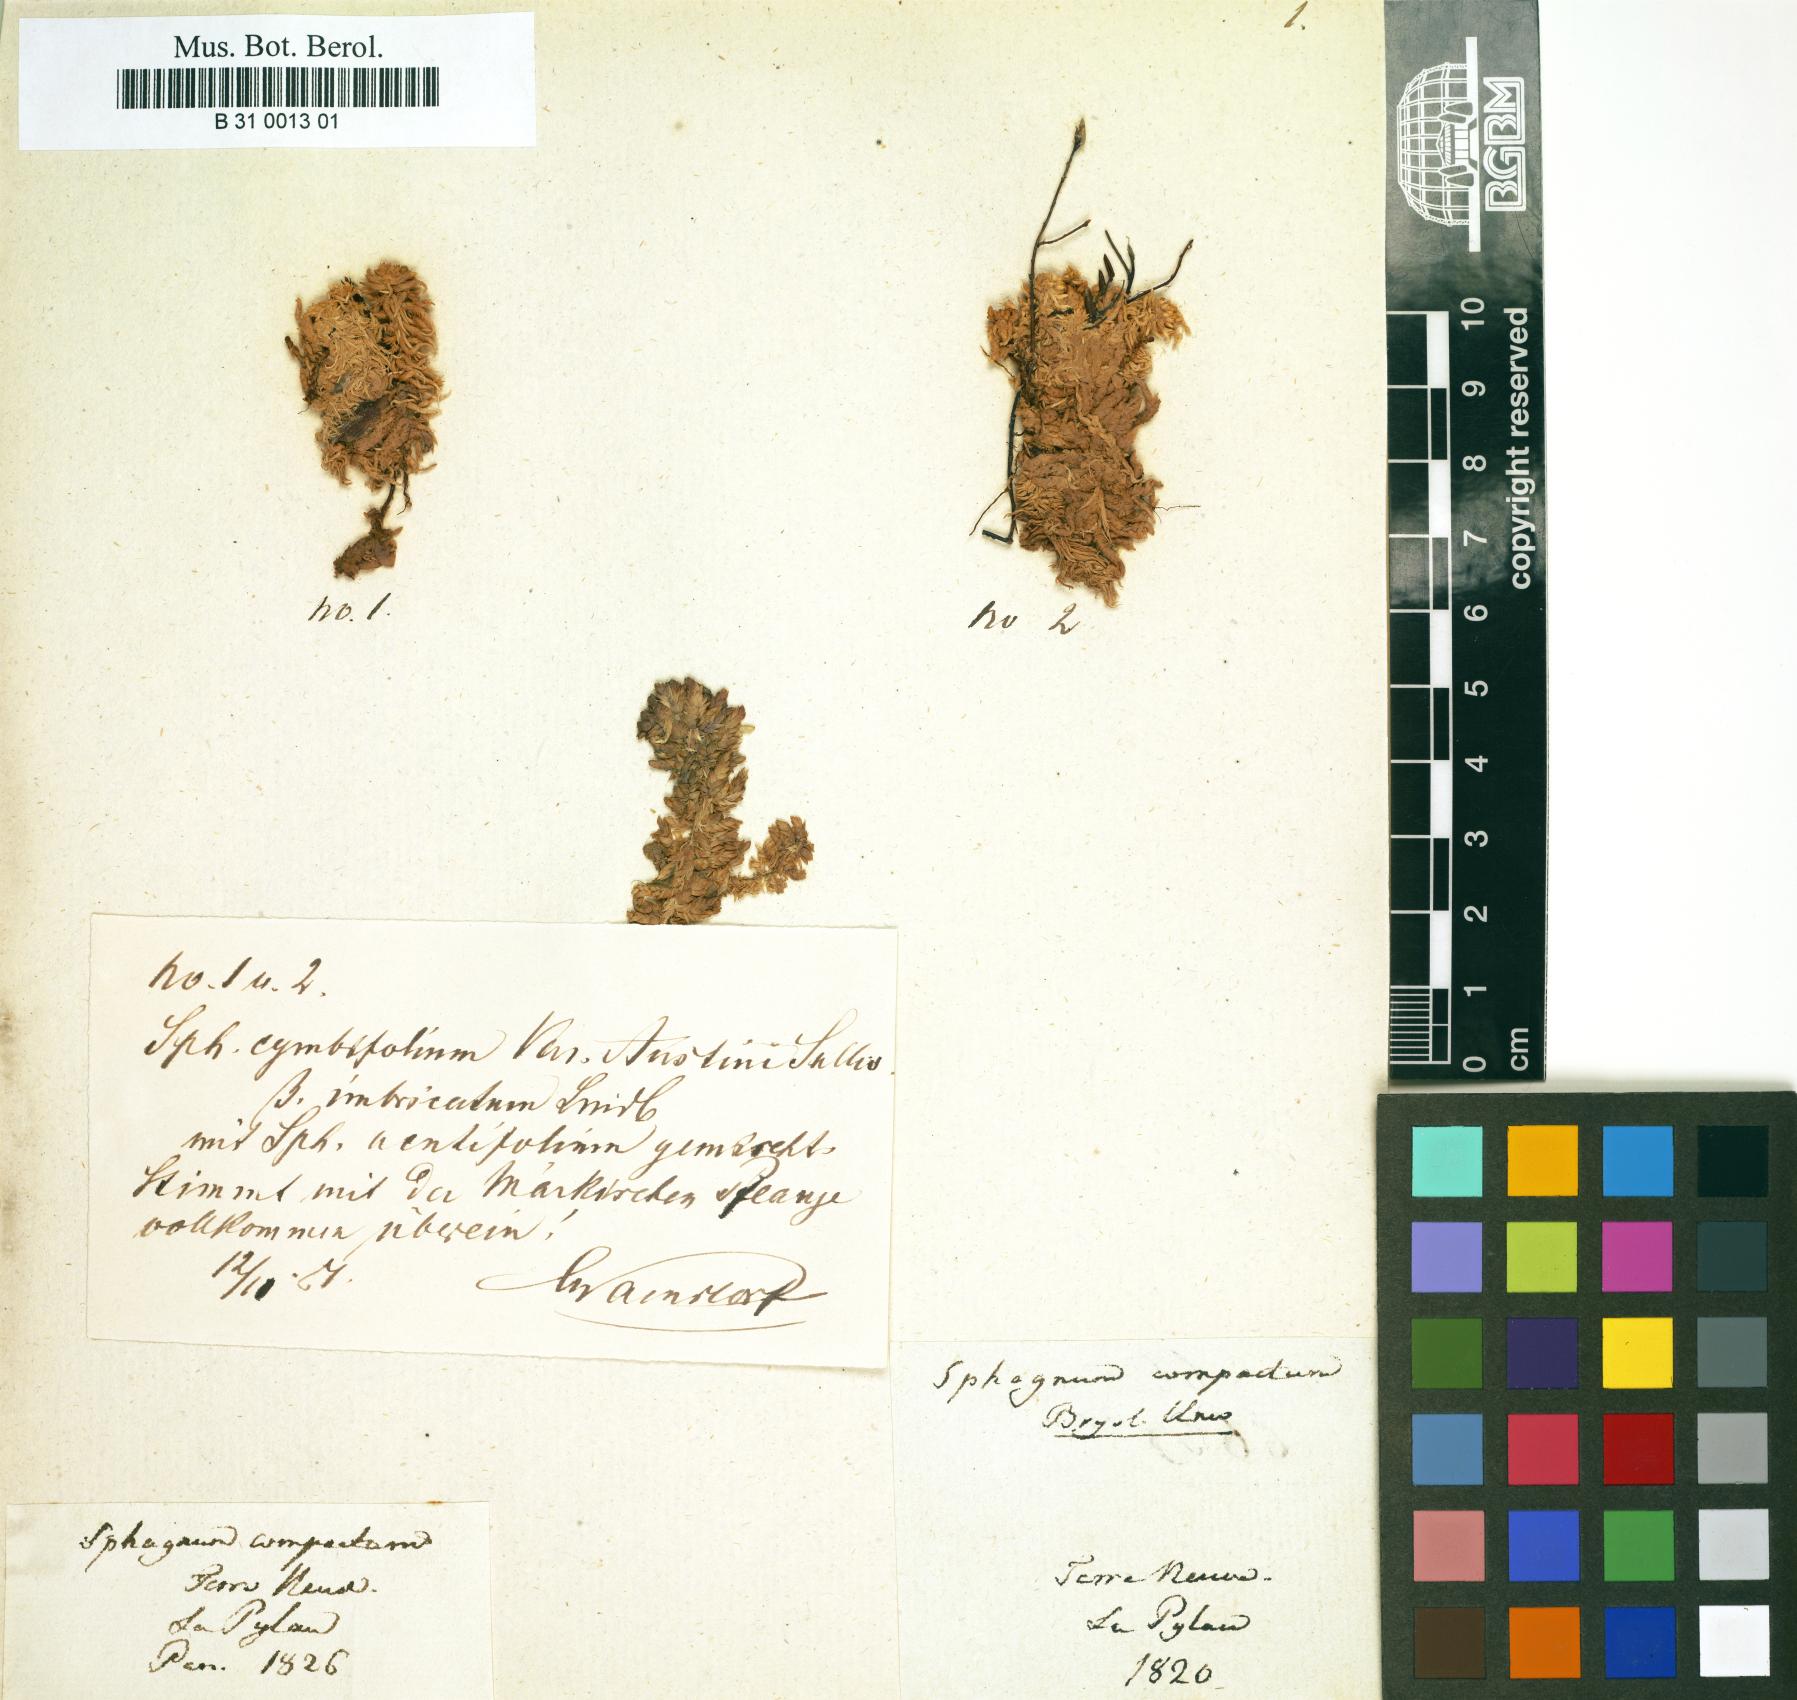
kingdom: Plantae
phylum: Bryophyta
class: Sphagnopsida
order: Sphagnales
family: Sphagnaceae
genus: Sphagnum
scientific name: Sphagnum compactum
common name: Compact peat moss
